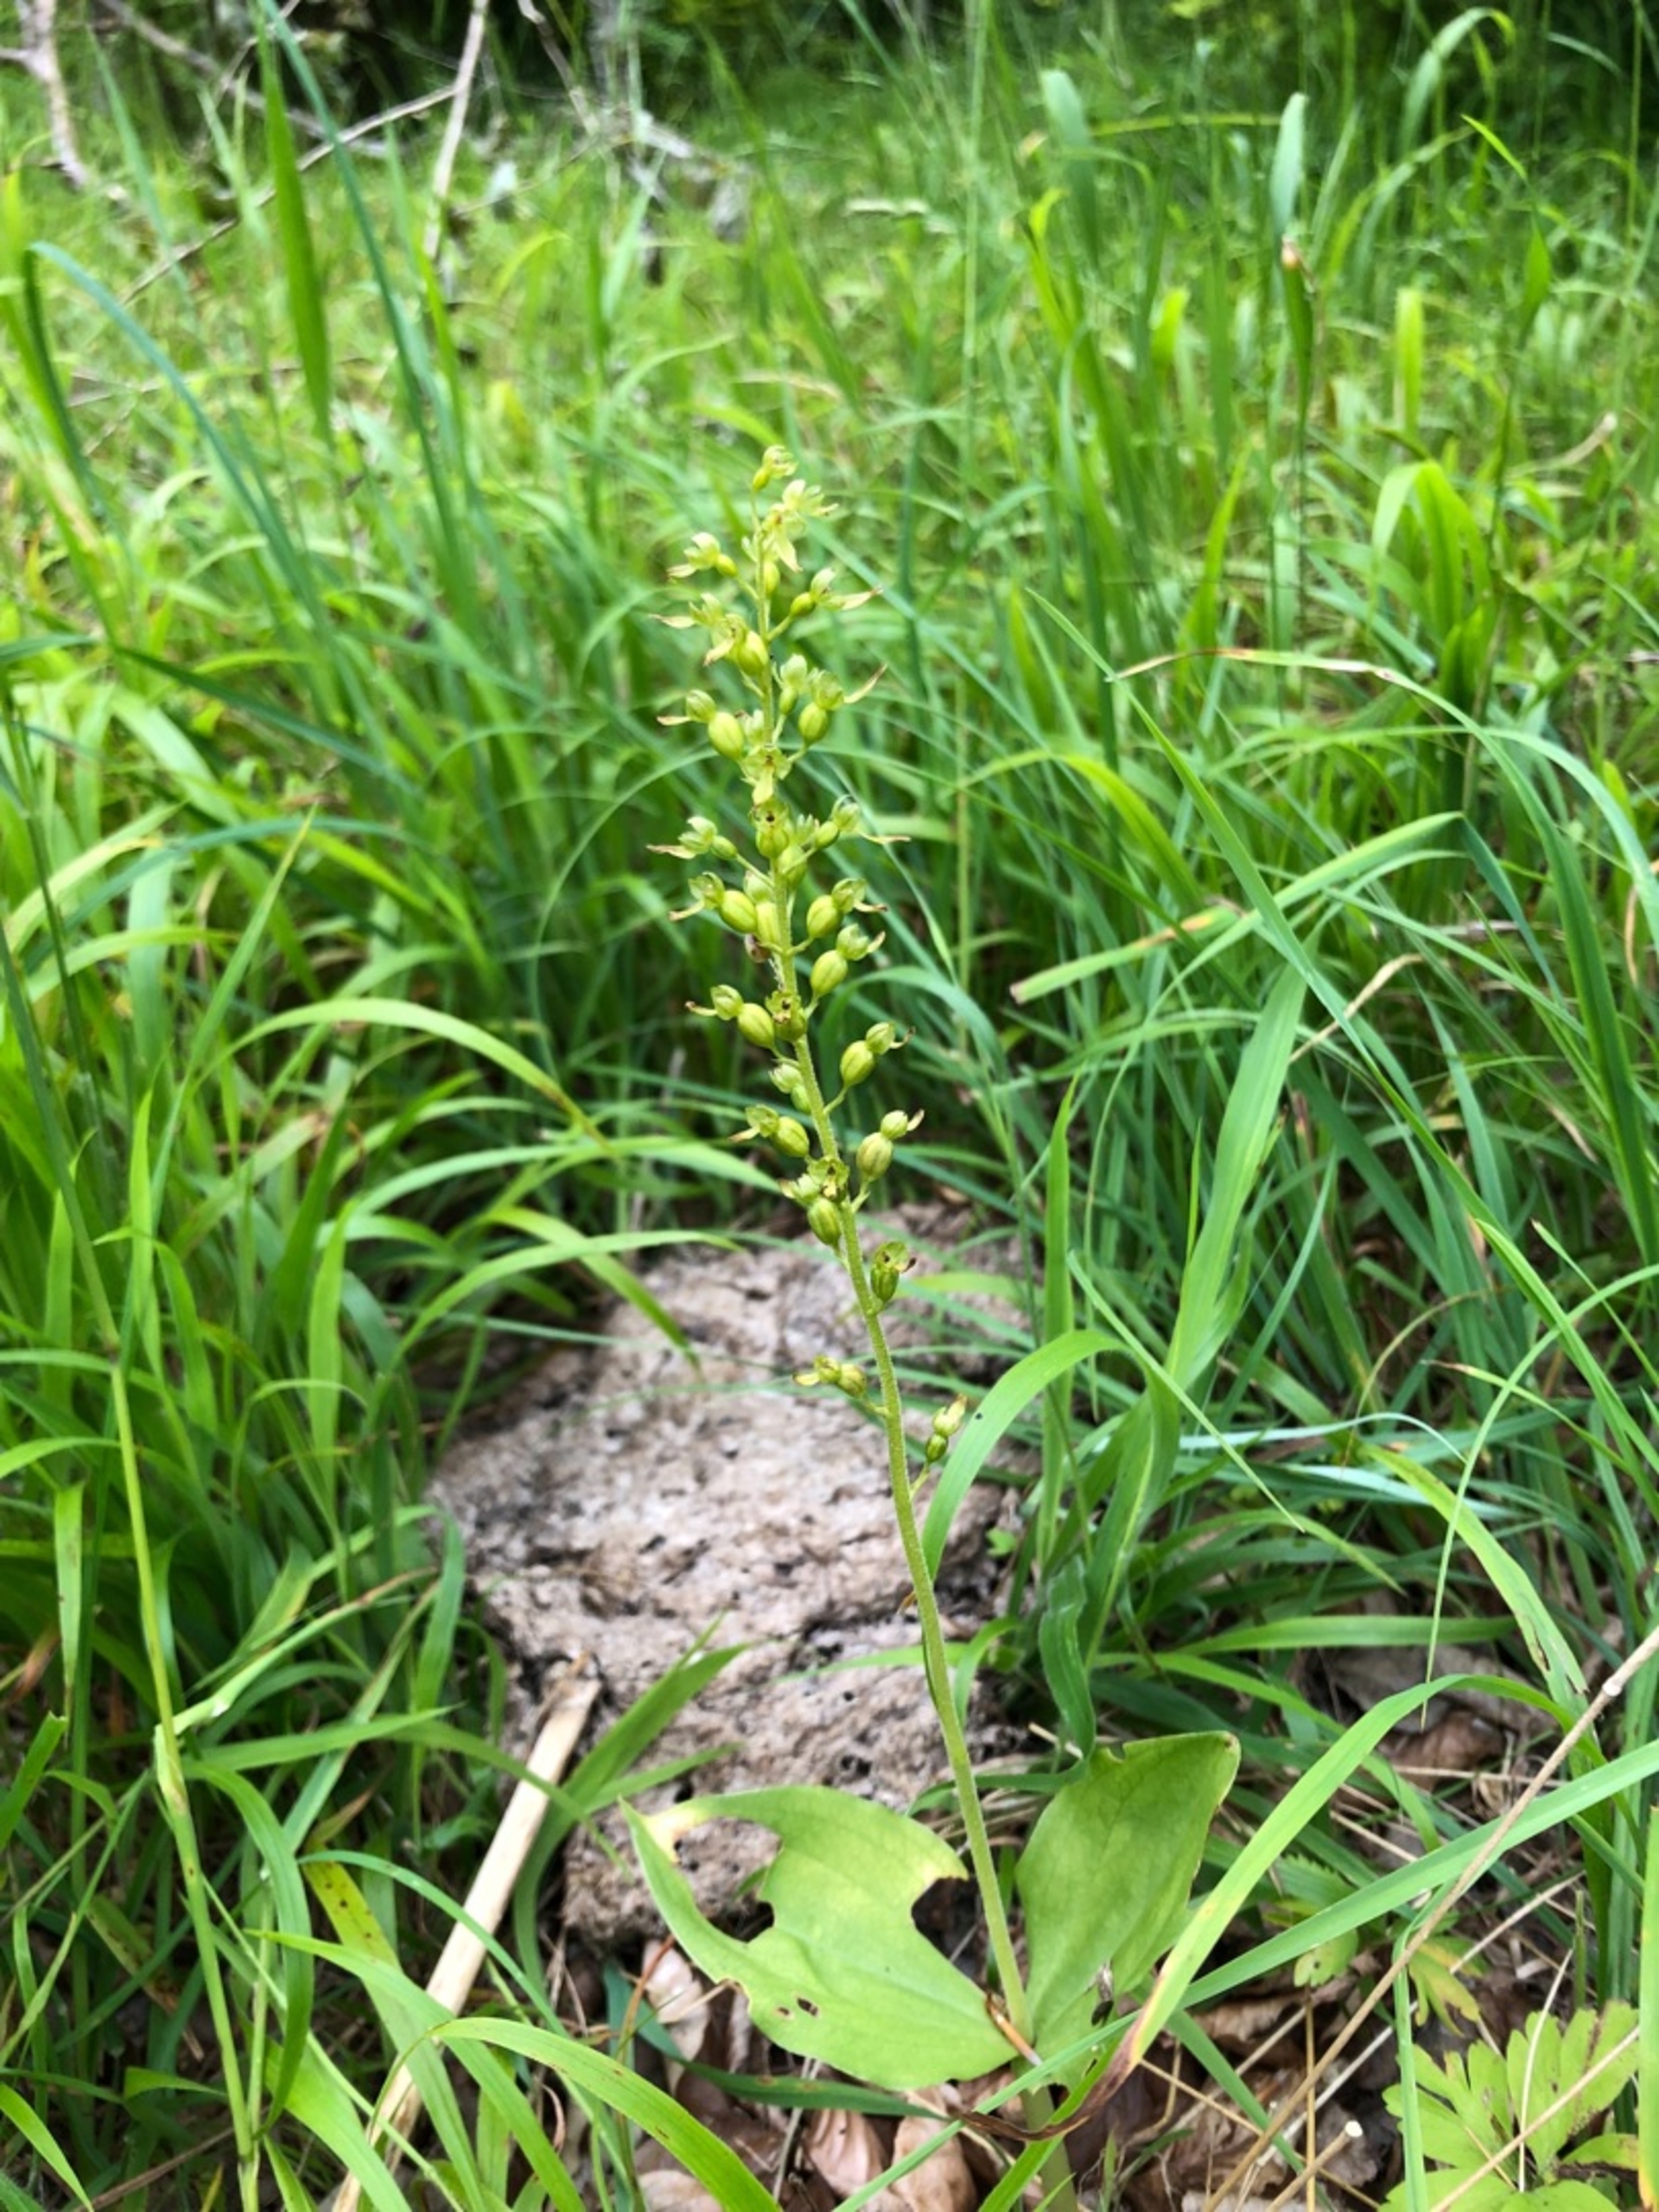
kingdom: Plantae
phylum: Tracheophyta
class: Liliopsida
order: Asparagales
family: Orchidaceae
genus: Neottia
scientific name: Neottia ovata
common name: Ægbladet fliglæbe
